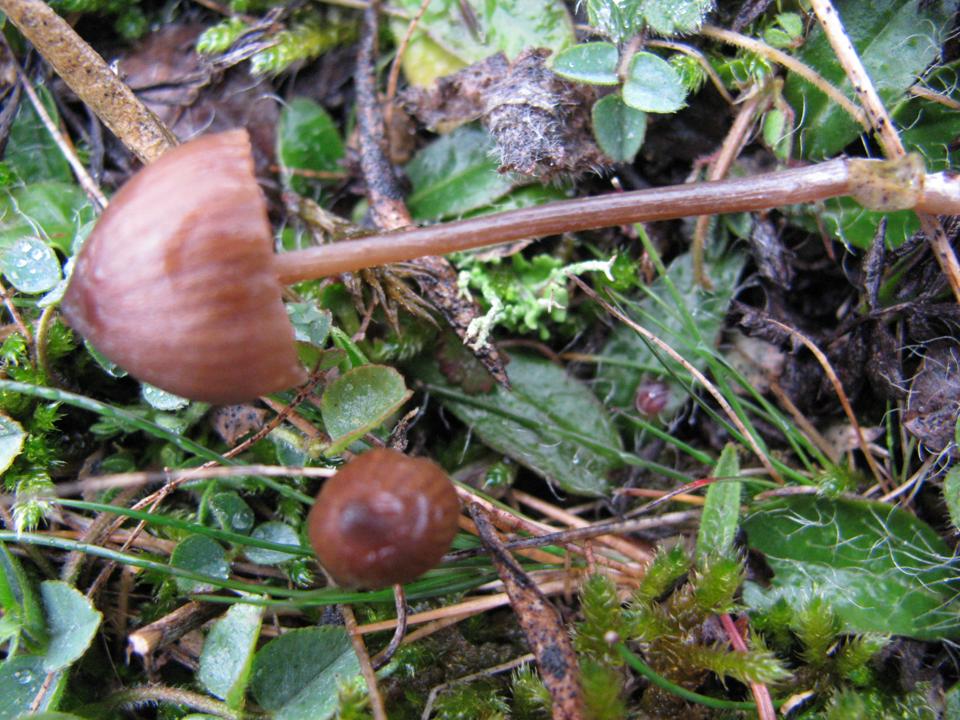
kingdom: Fungi
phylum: Basidiomycota
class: Agaricomycetes
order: Agaricales
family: Entolomataceae
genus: Entoloma
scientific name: Entoloma clandestinum
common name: tykbladet rødblad
